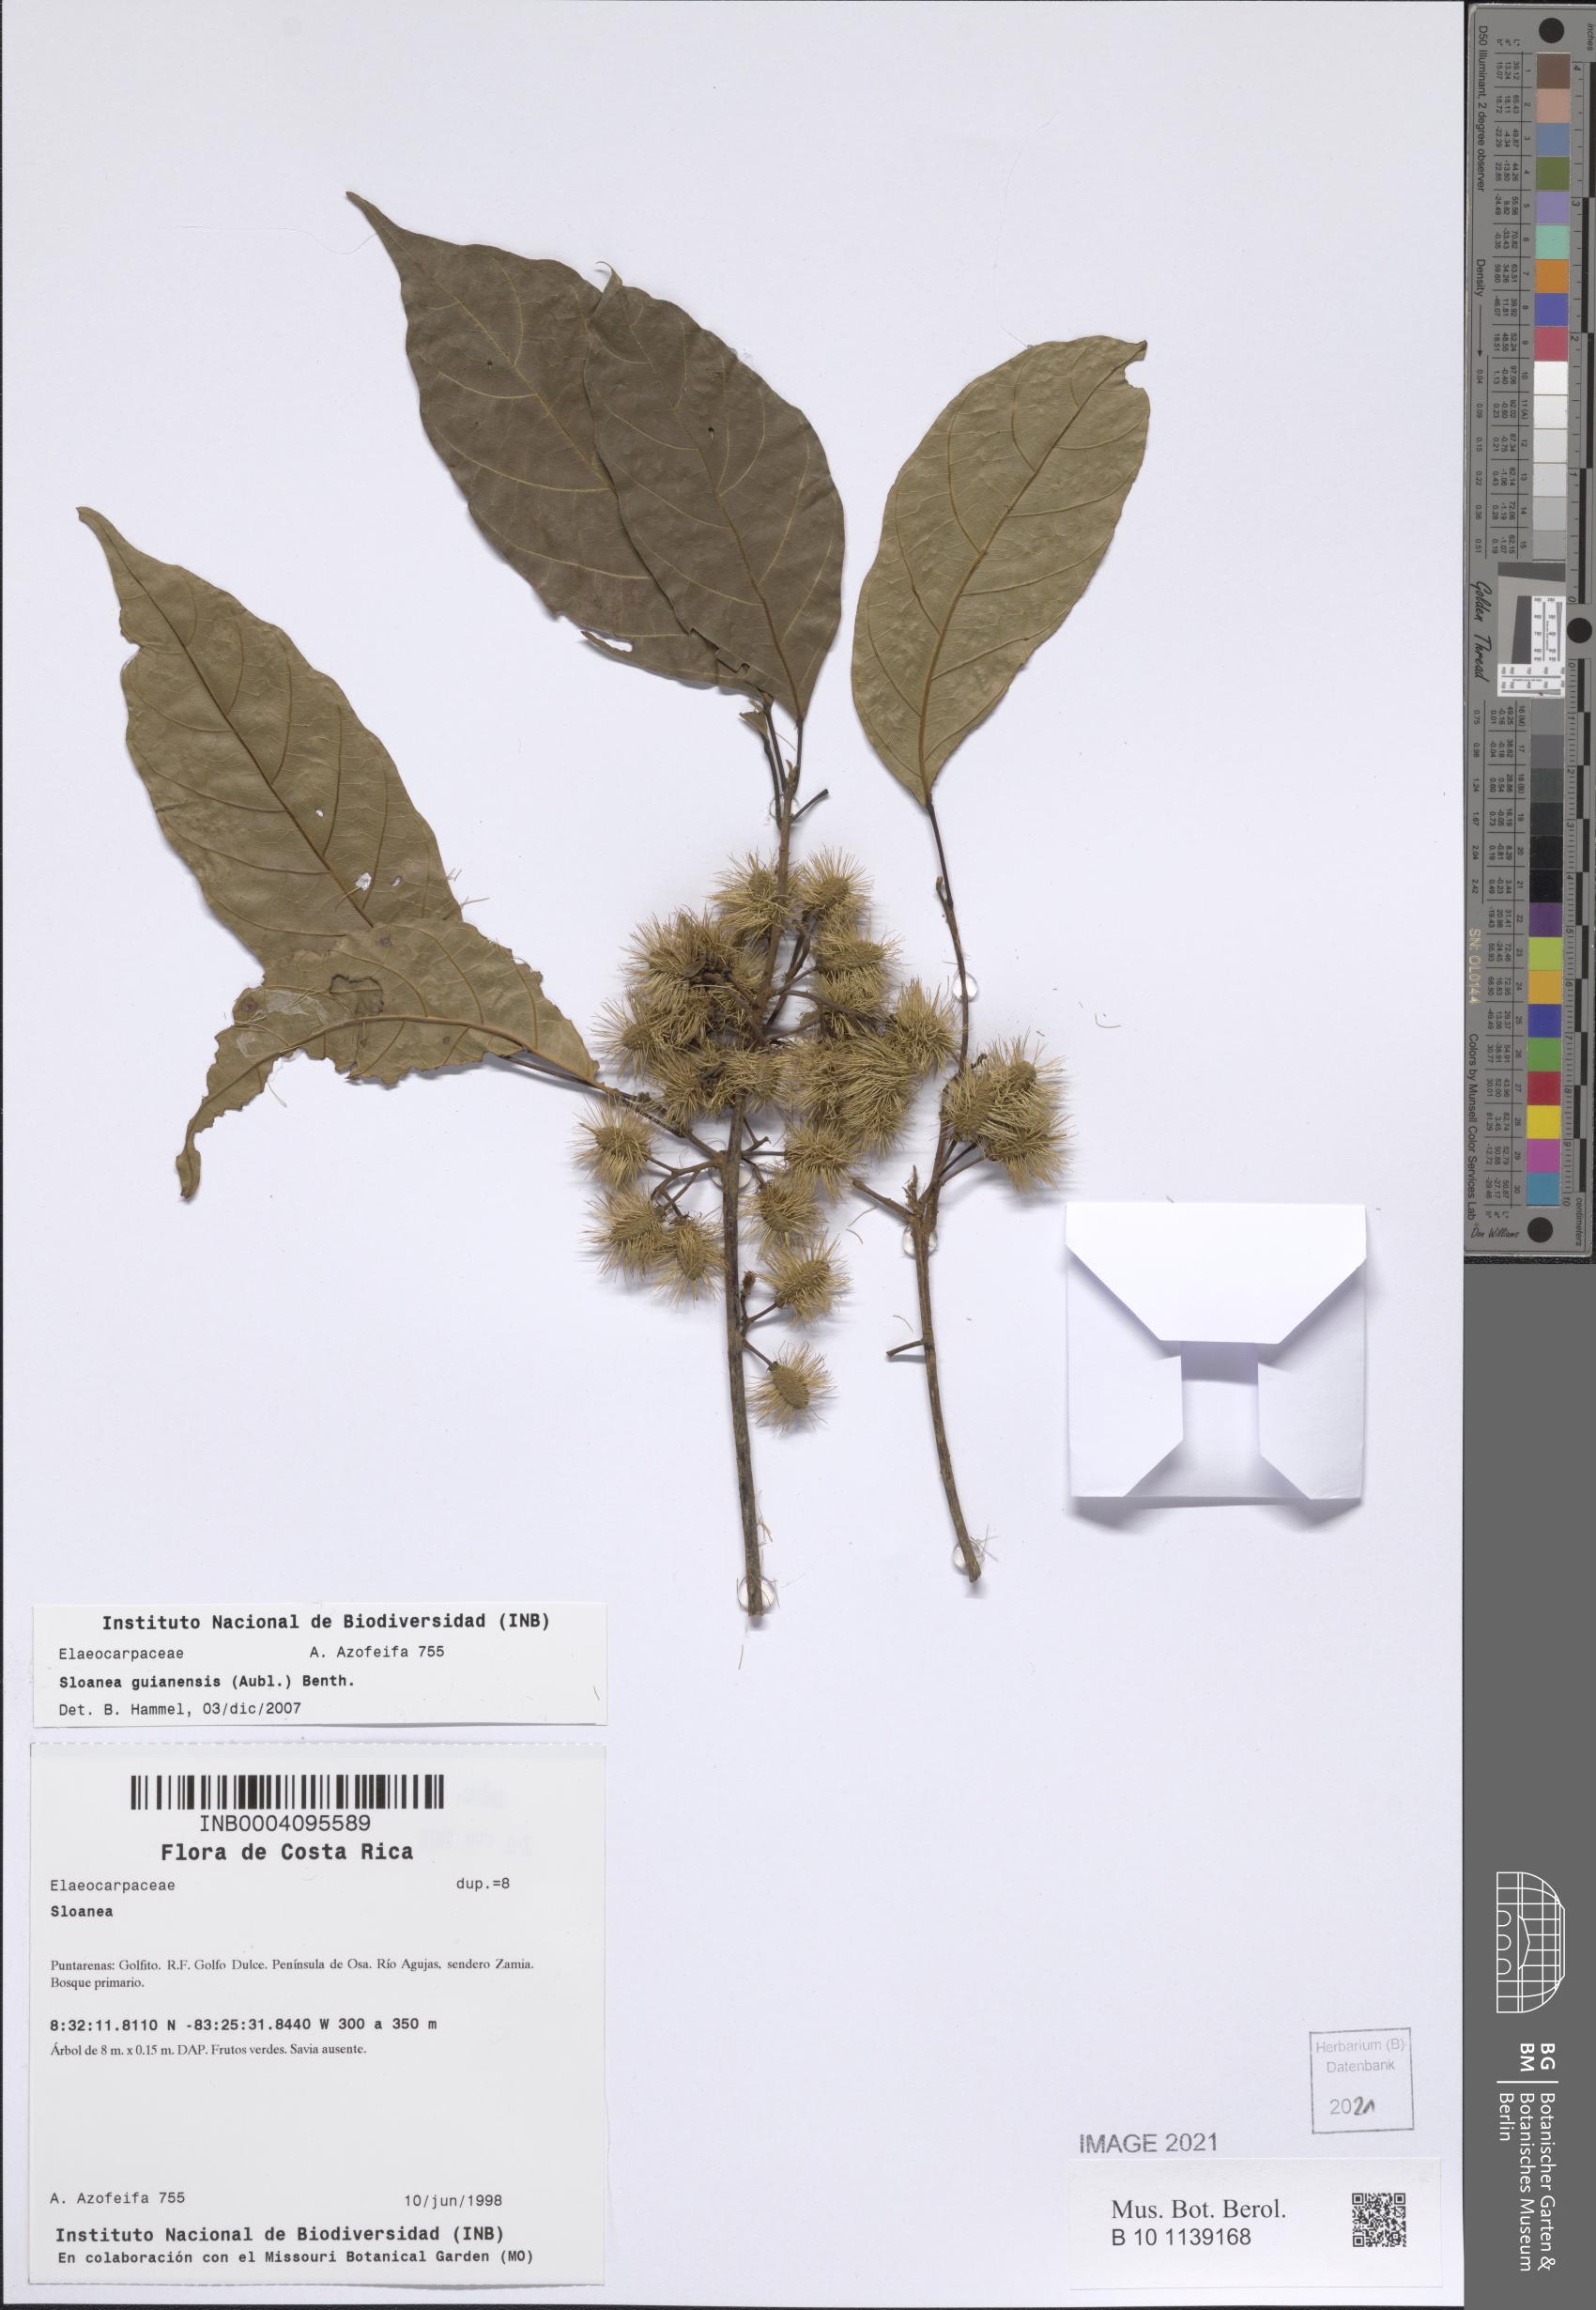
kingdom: Plantae
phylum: Tracheophyta
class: Magnoliopsida
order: Oxalidales
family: Elaeocarpaceae
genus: Sloanea
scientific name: Sloanea guianensis
